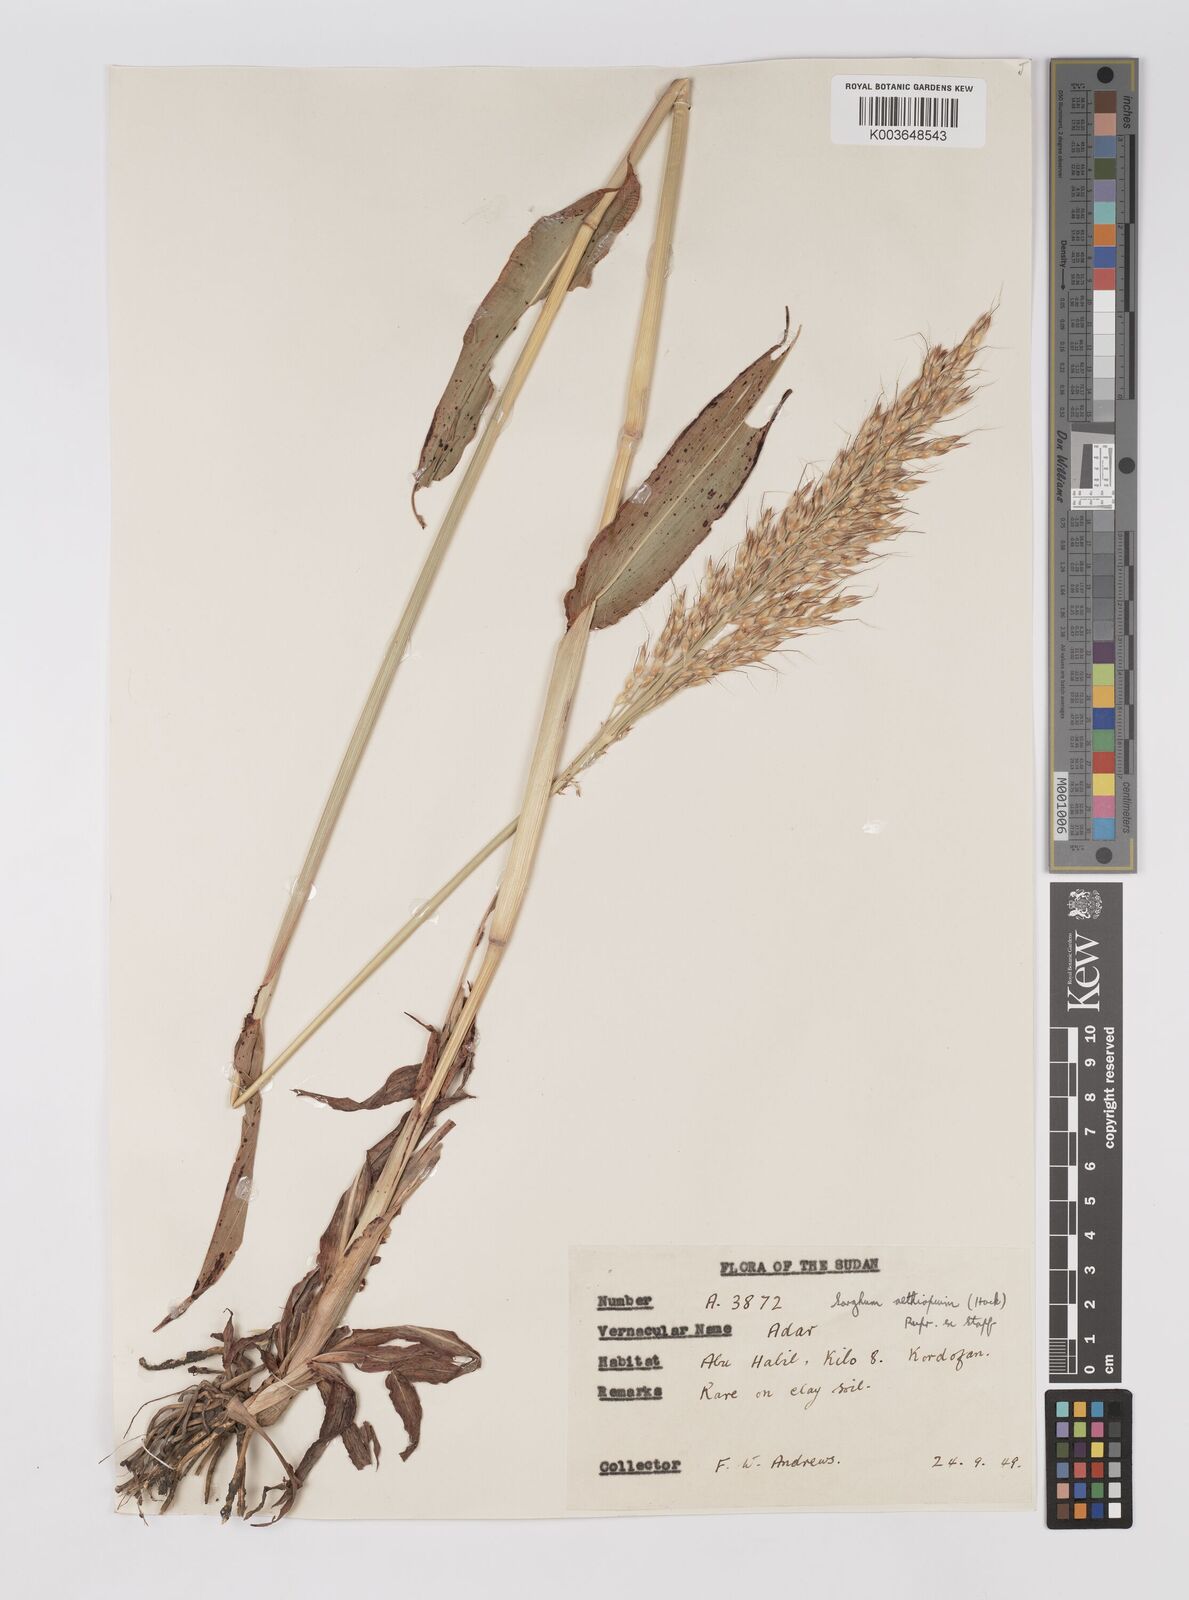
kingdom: Plantae
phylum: Tracheophyta
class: Liliopsida
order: Poales
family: Poaceae
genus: Sorghum
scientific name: Sorghum drummondii
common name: Sudangrass
